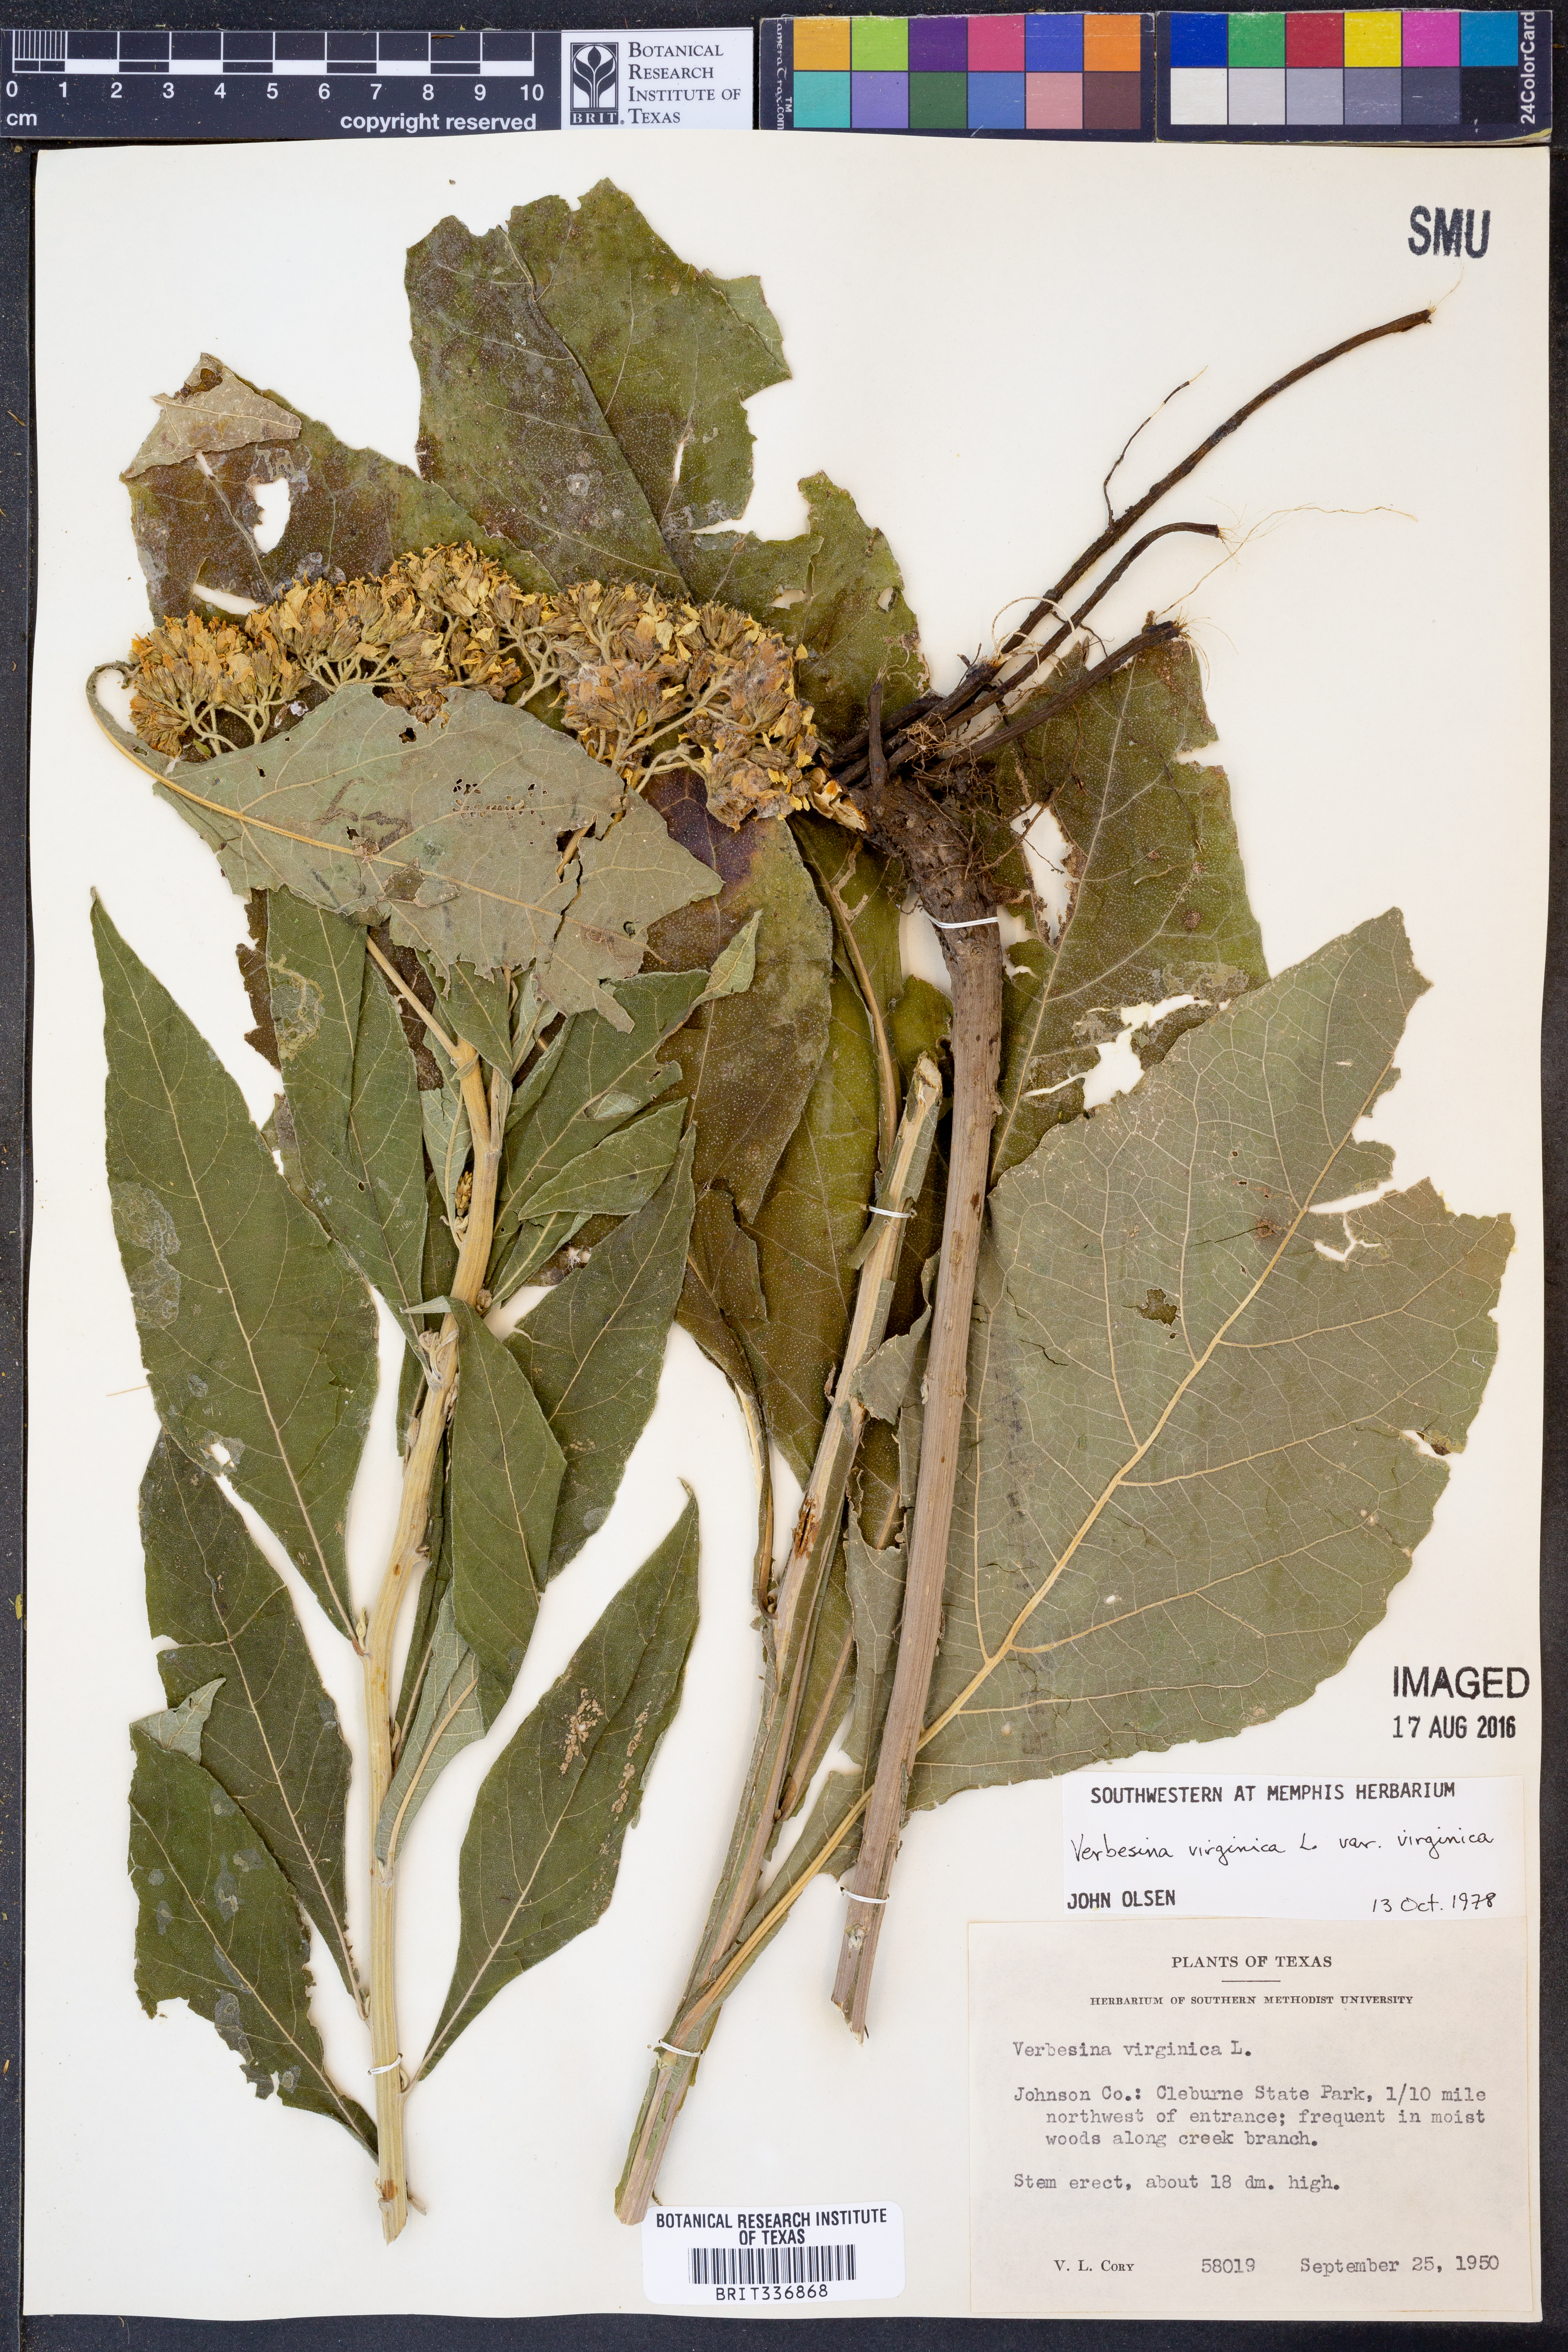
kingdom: Plantae
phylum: Tracheophyta
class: Magnoliopsida
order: Asterales
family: Asteraceae
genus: Verbesina
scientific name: Verbesina virginica
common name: Frostweed
